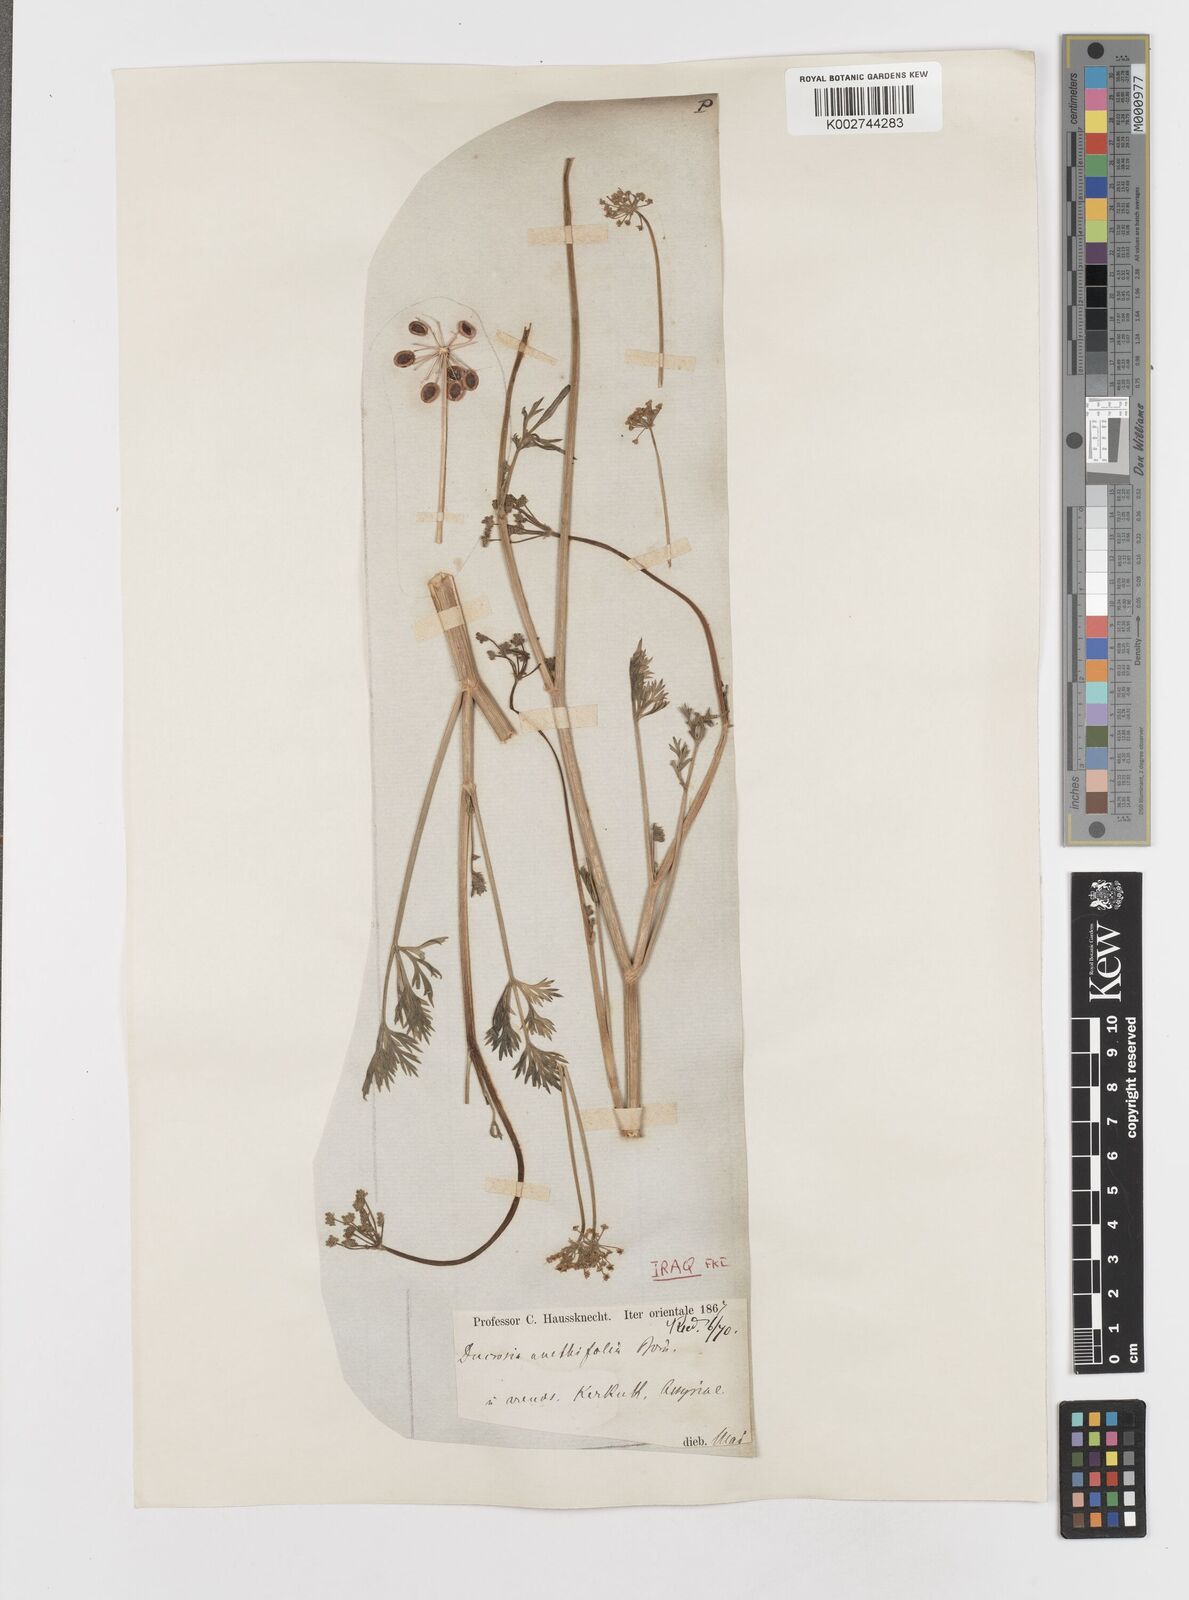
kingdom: Plantae
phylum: Tracheophyta
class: Magnoliopsida
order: Apiales
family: Apiaceae
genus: Ducrosia
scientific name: Ducrosia anethifolia
